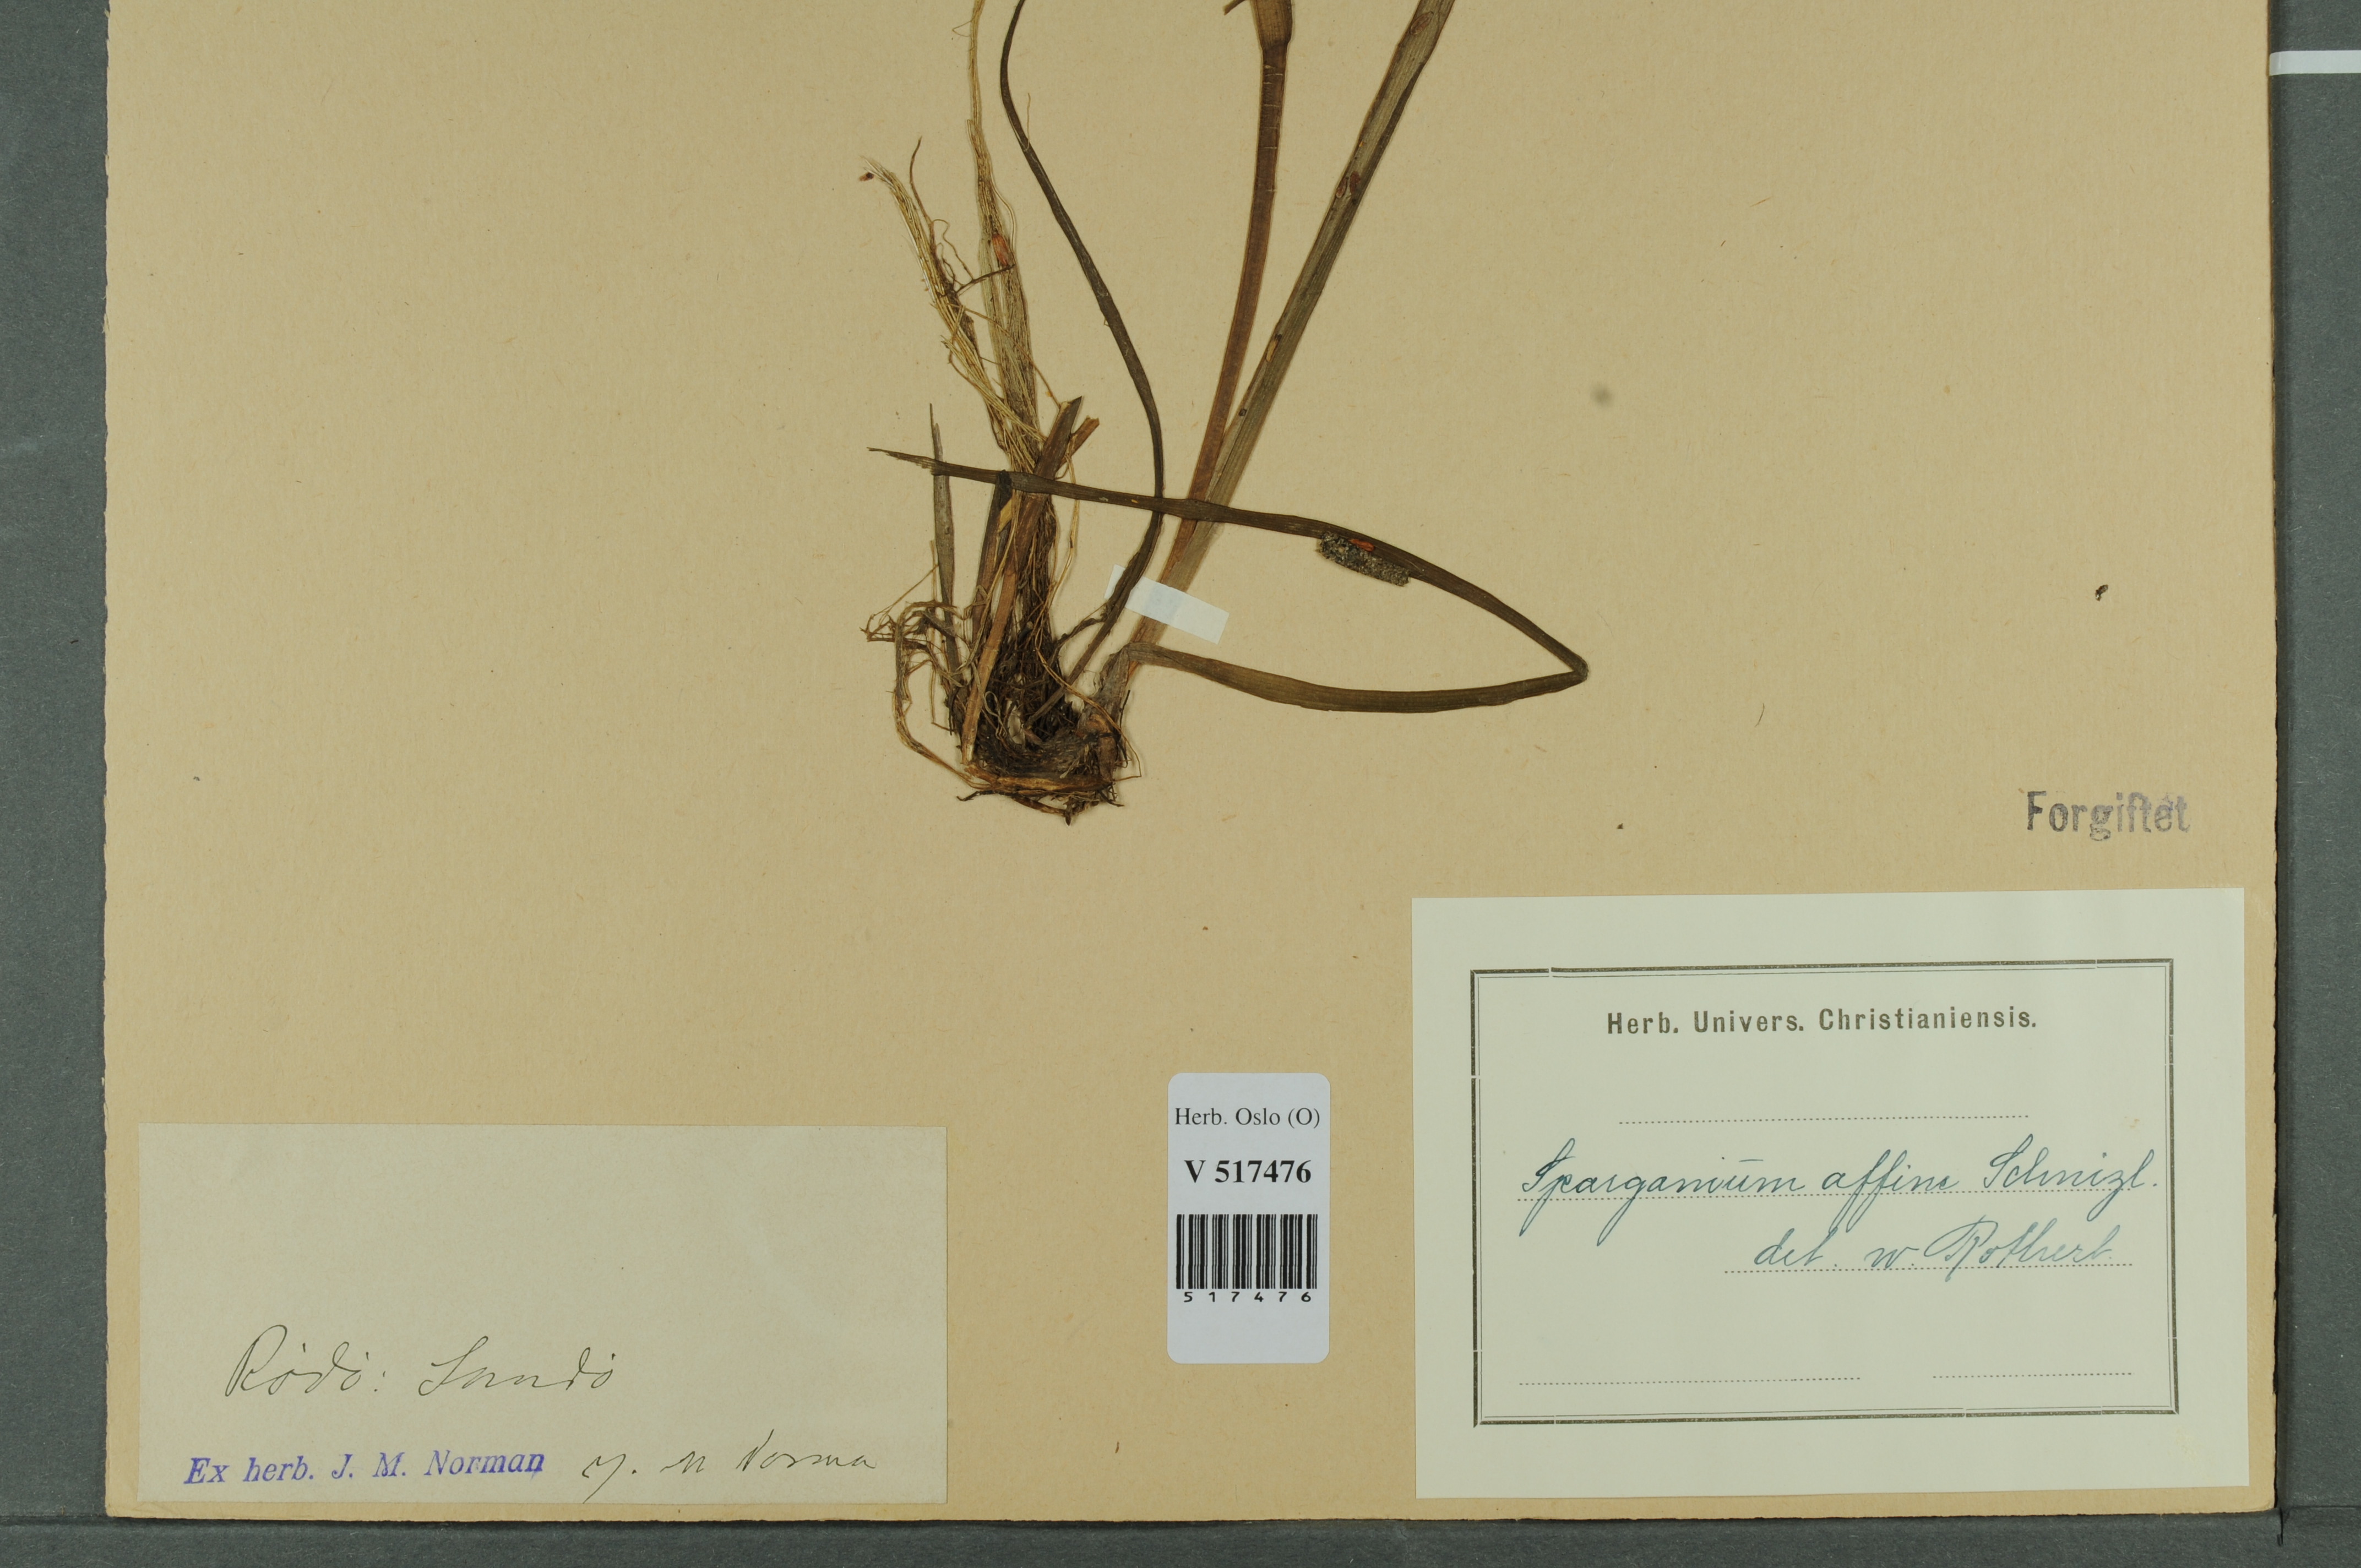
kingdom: Plantae
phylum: Tracheophyta
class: Liliopsida
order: Poales
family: Typhaceae
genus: Sparganium
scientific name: Sparganium angustifolium
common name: Floating bur-reed
